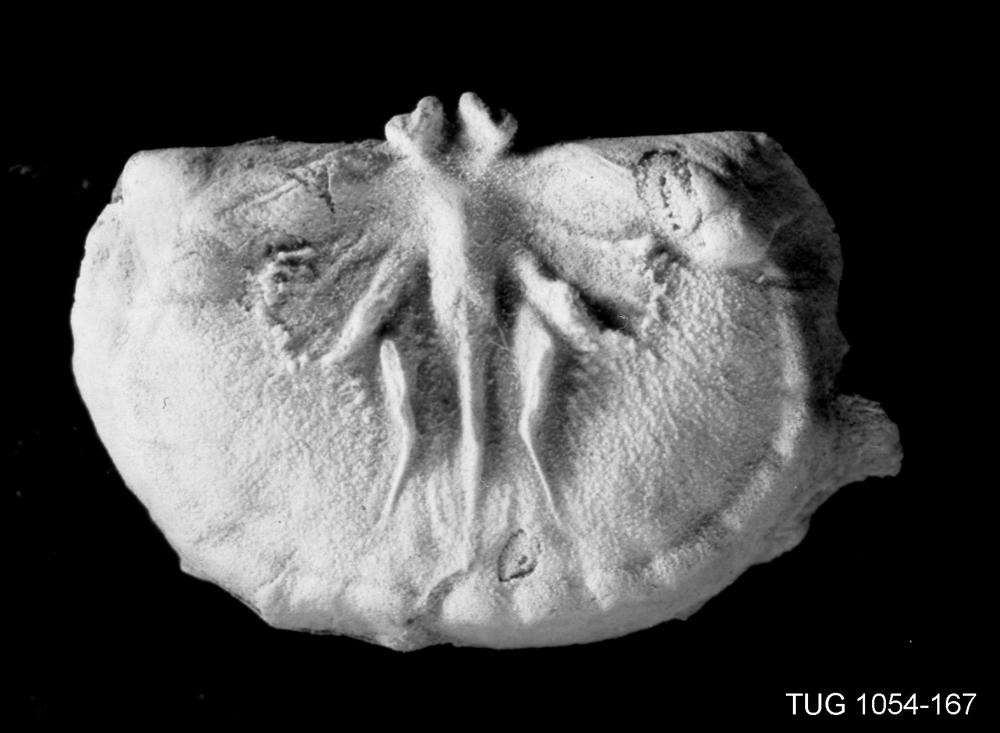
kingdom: Animalia
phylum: Brachiopoda
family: Strophomenidae
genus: Bekkerina
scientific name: Bekkerina Rafinesquina dorsata
